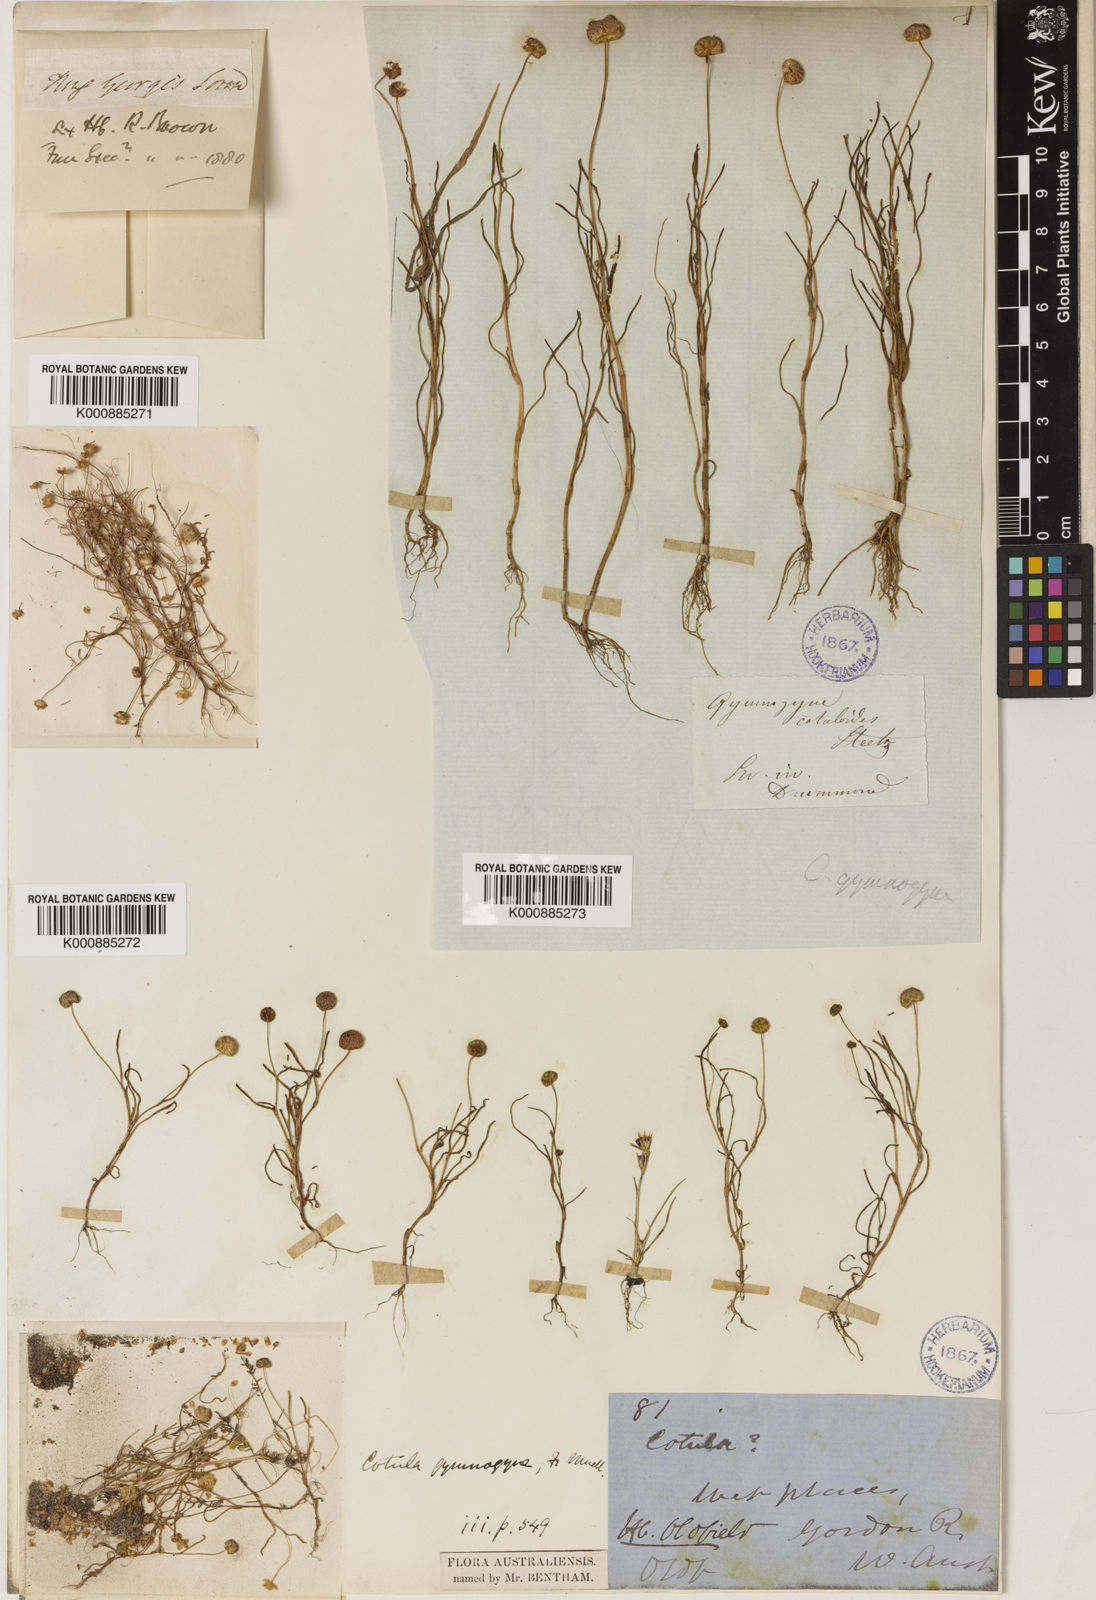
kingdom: Plantae
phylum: Tracheophyta
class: Magnoliopsida
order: Asterales
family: Asteraceae
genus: Cotula
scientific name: Cotula cotuloides
